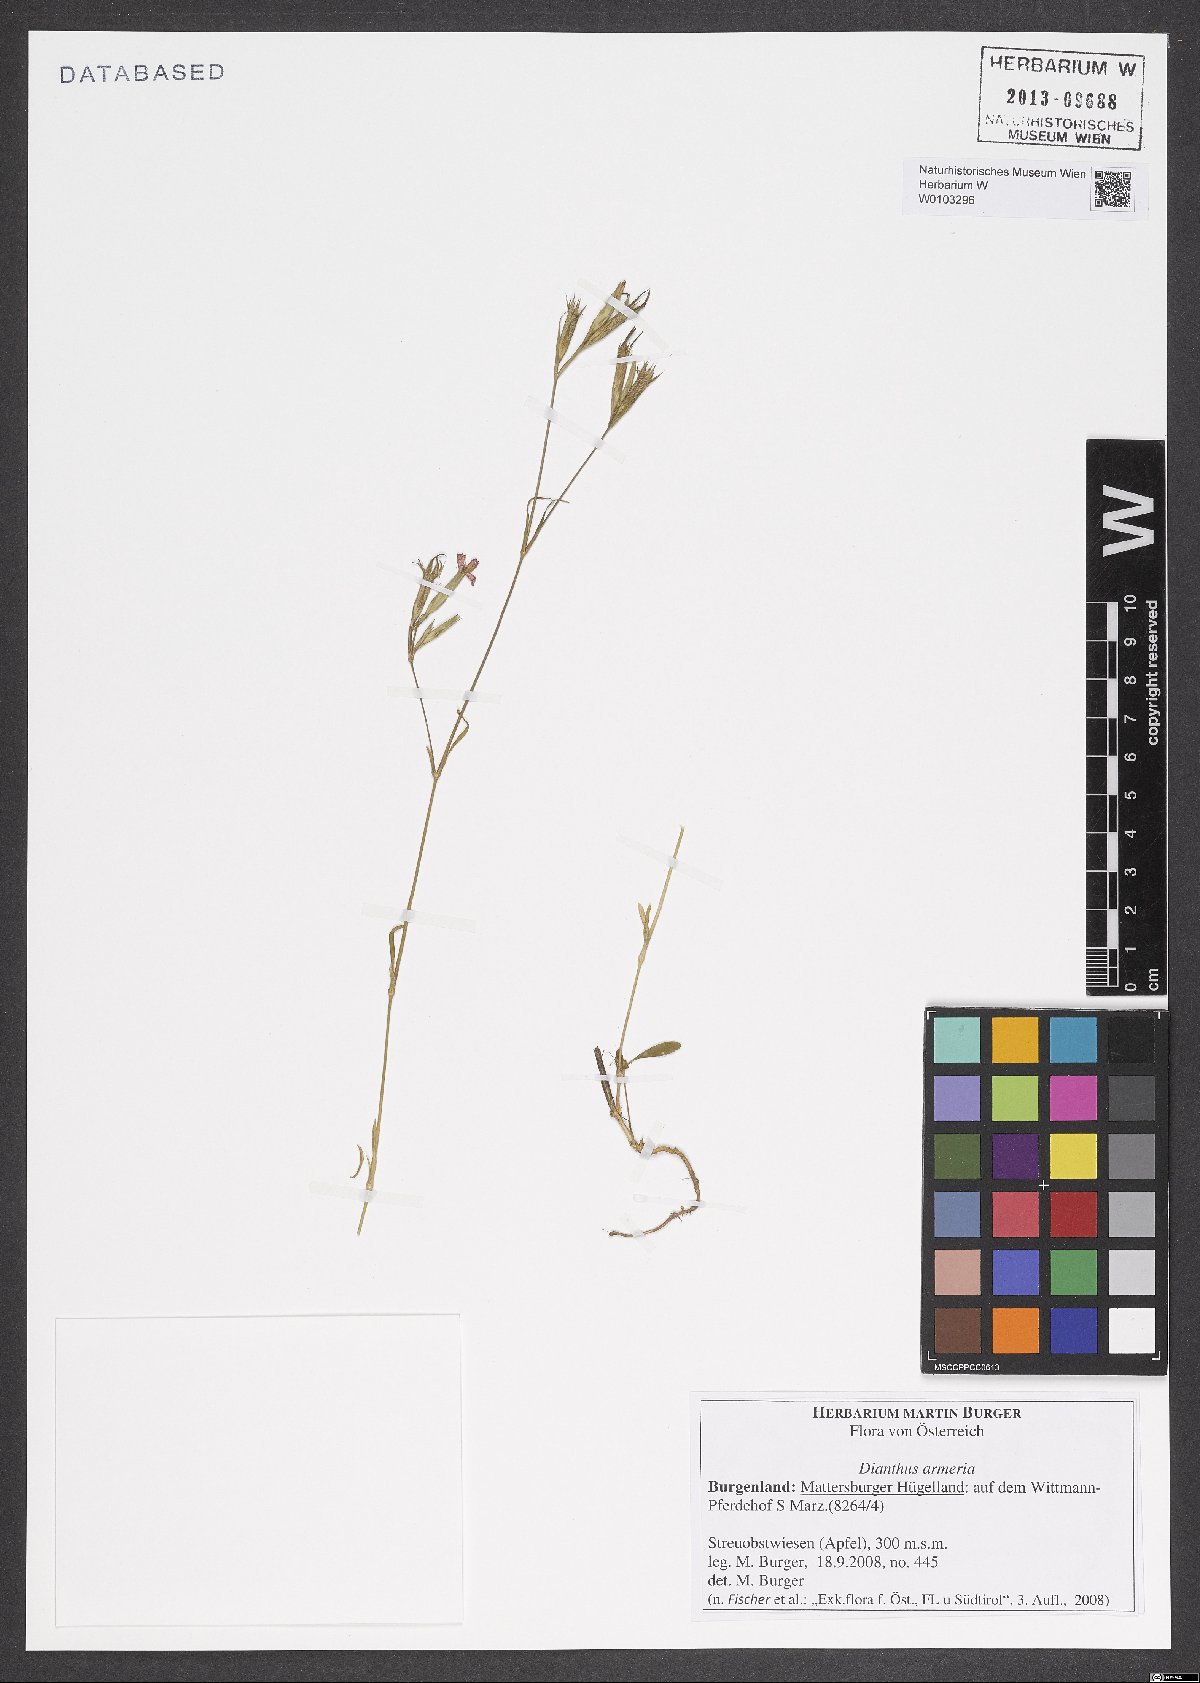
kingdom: Plantae
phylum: Tracheophyta
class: Magnoliopsida
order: Caryophyllales
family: Caryophyllaceae
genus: Dianthus
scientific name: Dianthus armeria
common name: Deptford pink
